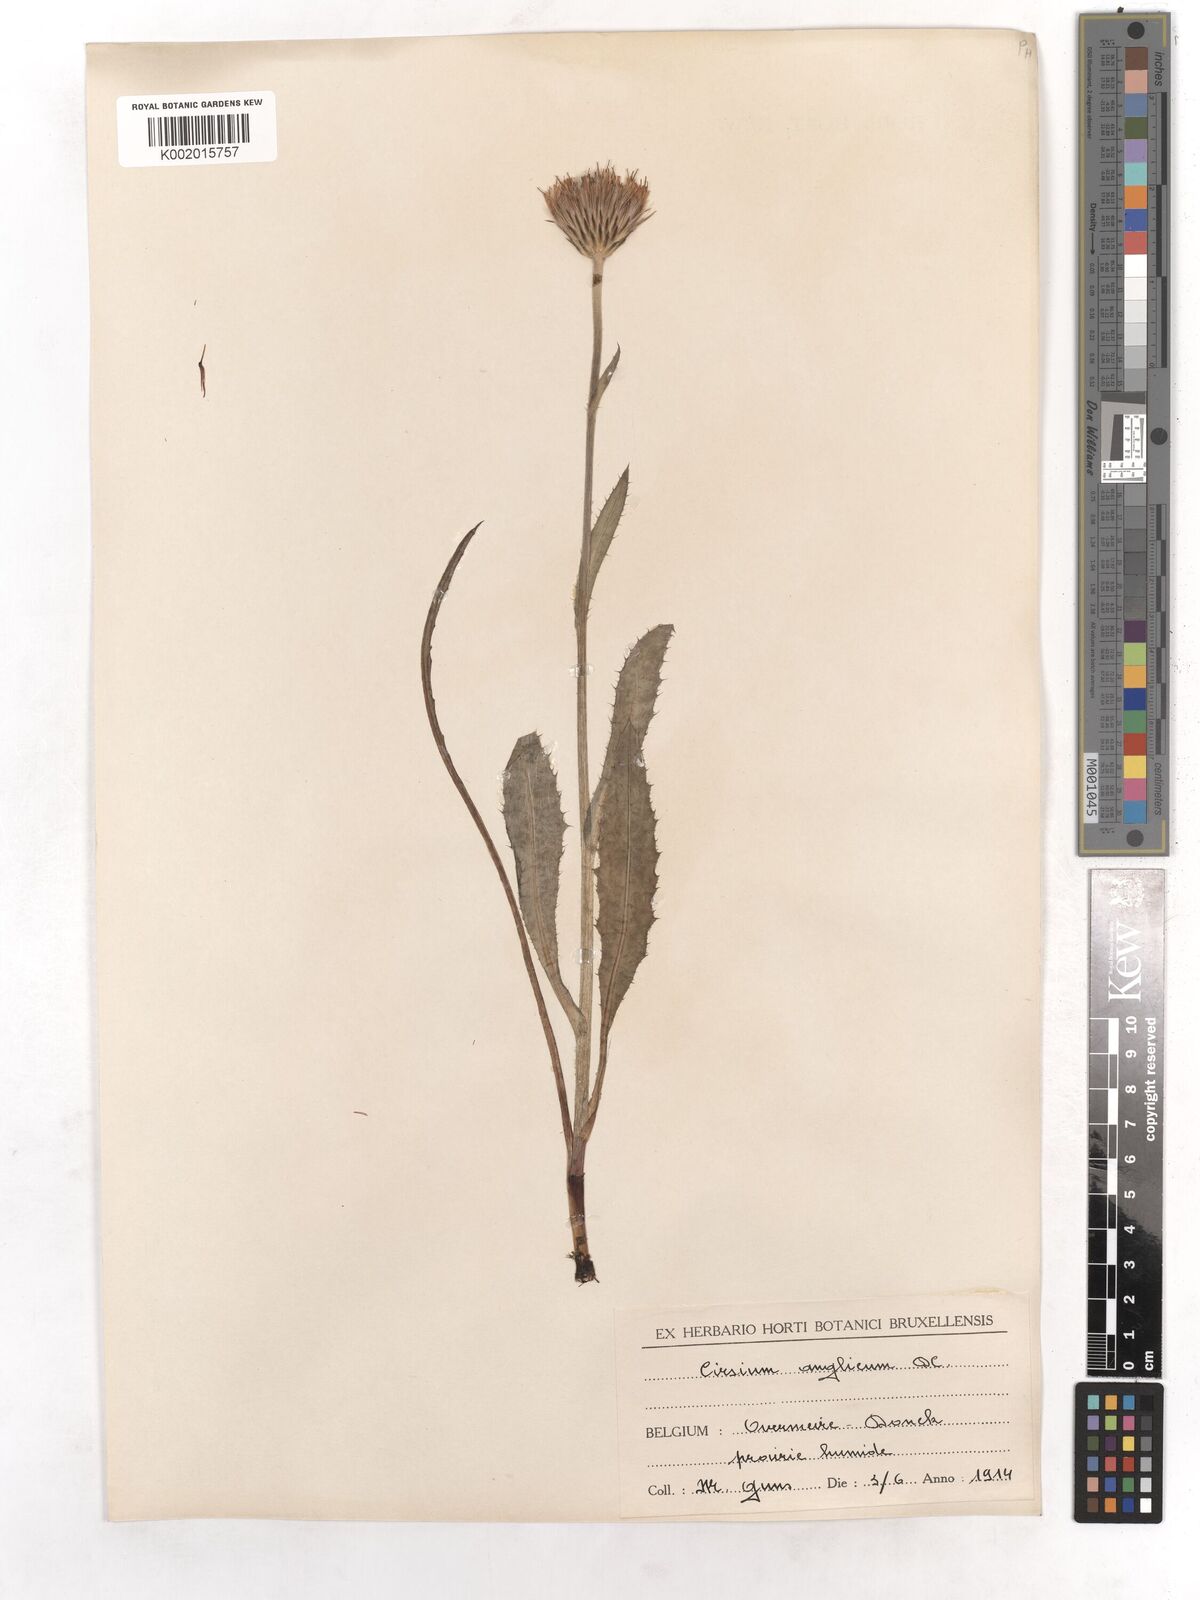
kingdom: Plantae
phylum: Tracheophyta
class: Magnoliopsida
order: Asterales
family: Asteraceae
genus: Cirsium
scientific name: Cirsium dissectum
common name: Meadow thistle
